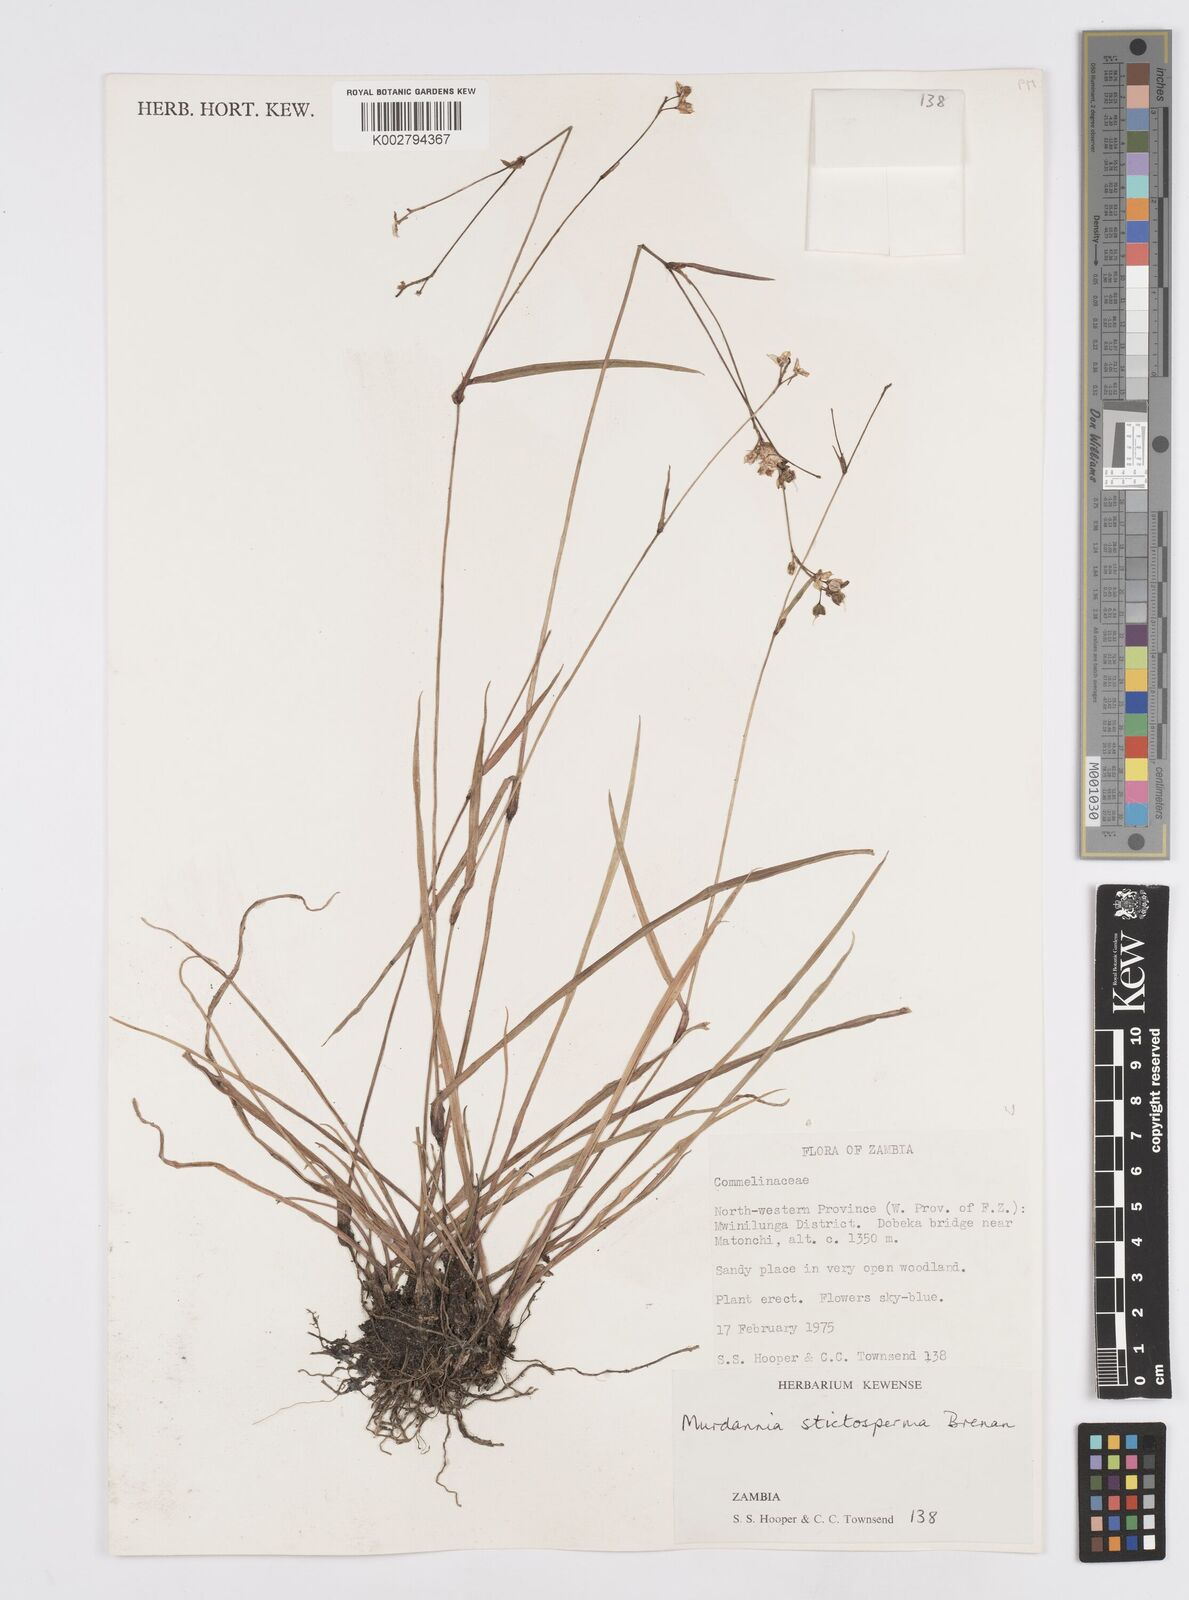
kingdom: Plantae
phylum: Tracheophyta
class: Liliopsida
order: Commelinales
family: Commelinaceae
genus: Murdannia
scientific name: Murdannia simplex
